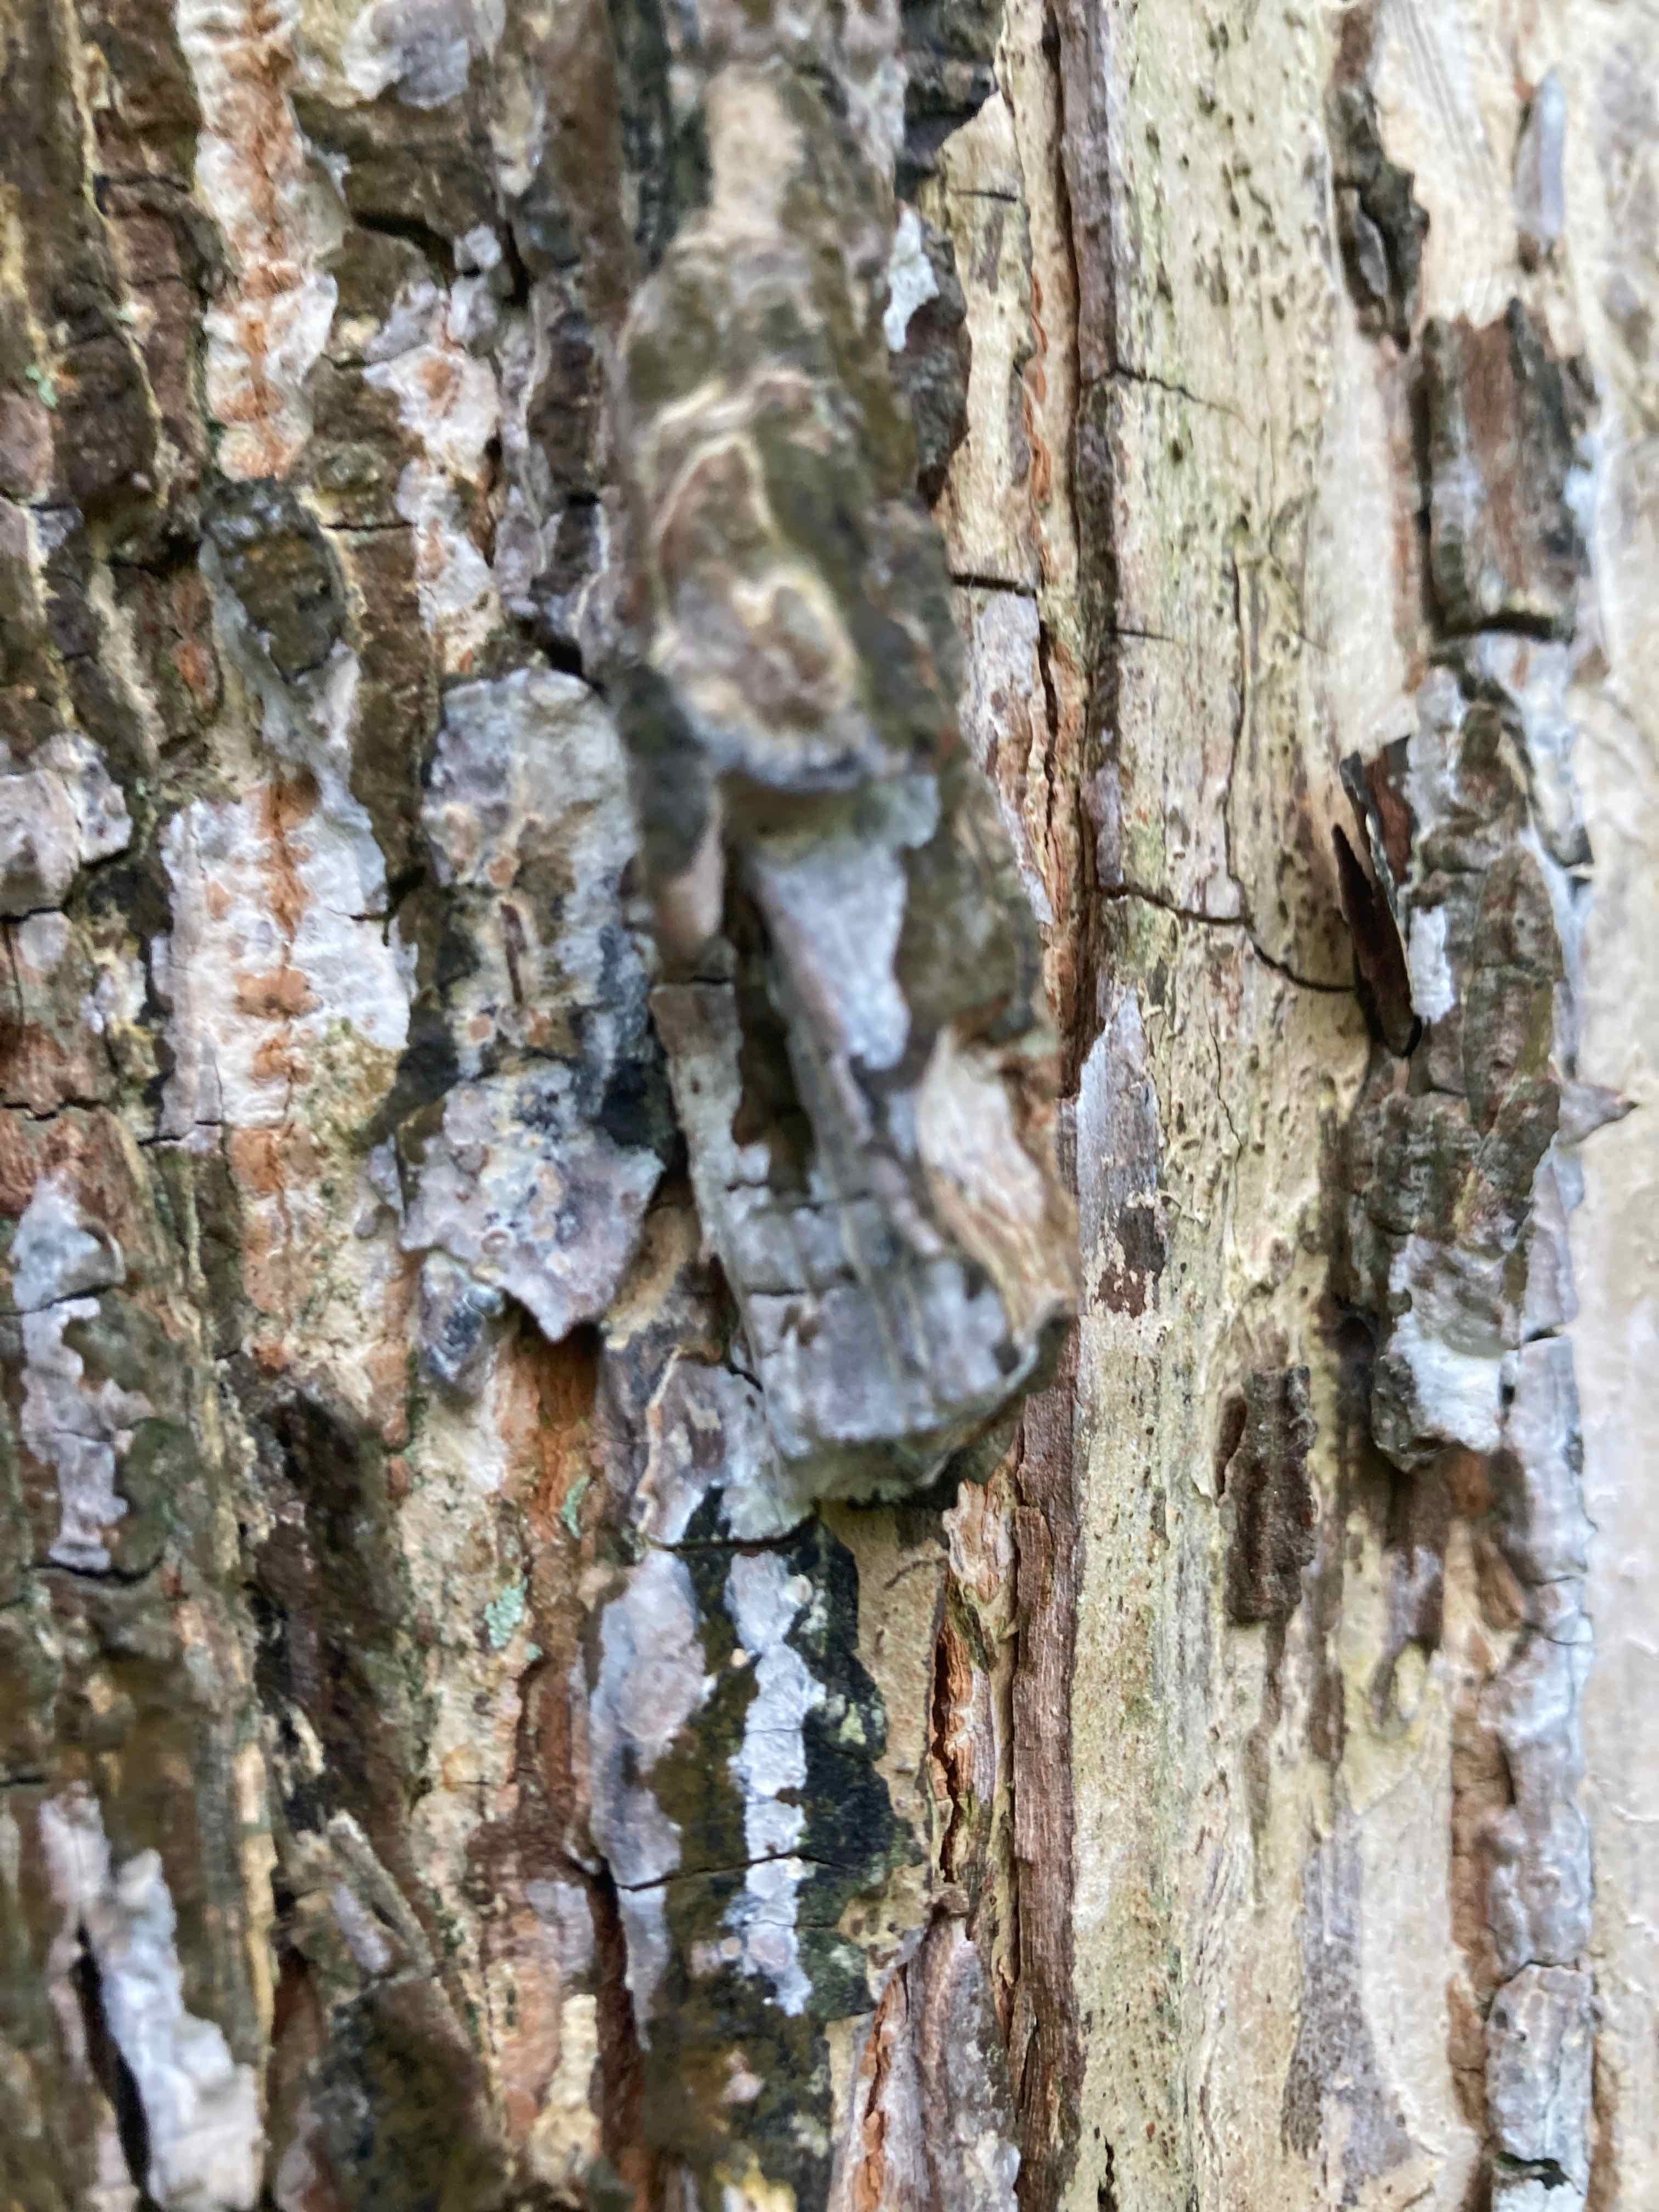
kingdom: Fungi
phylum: Basidiomycota
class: Agaricomycetes
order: Agaricales
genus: Dendrothele
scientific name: Dendrothele acerina
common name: navr-kalkplet
